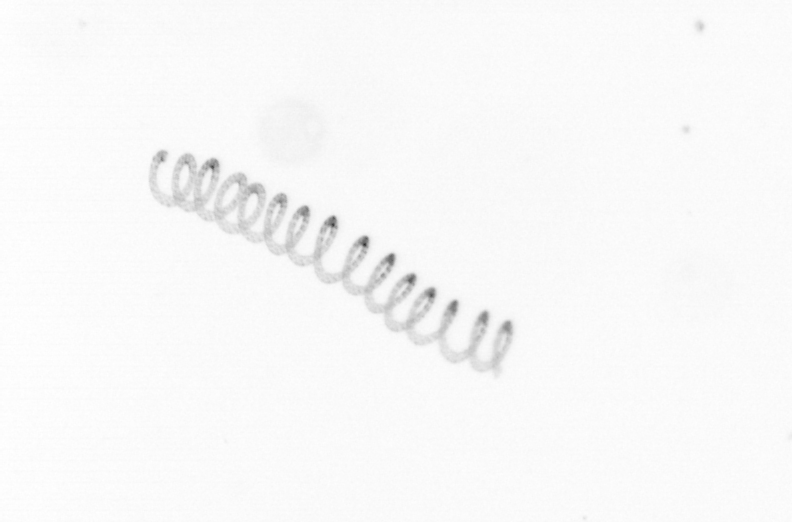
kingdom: Chromista
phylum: Ochrophyta
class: Bacillariophyceae
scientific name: Bacillariophyceae
